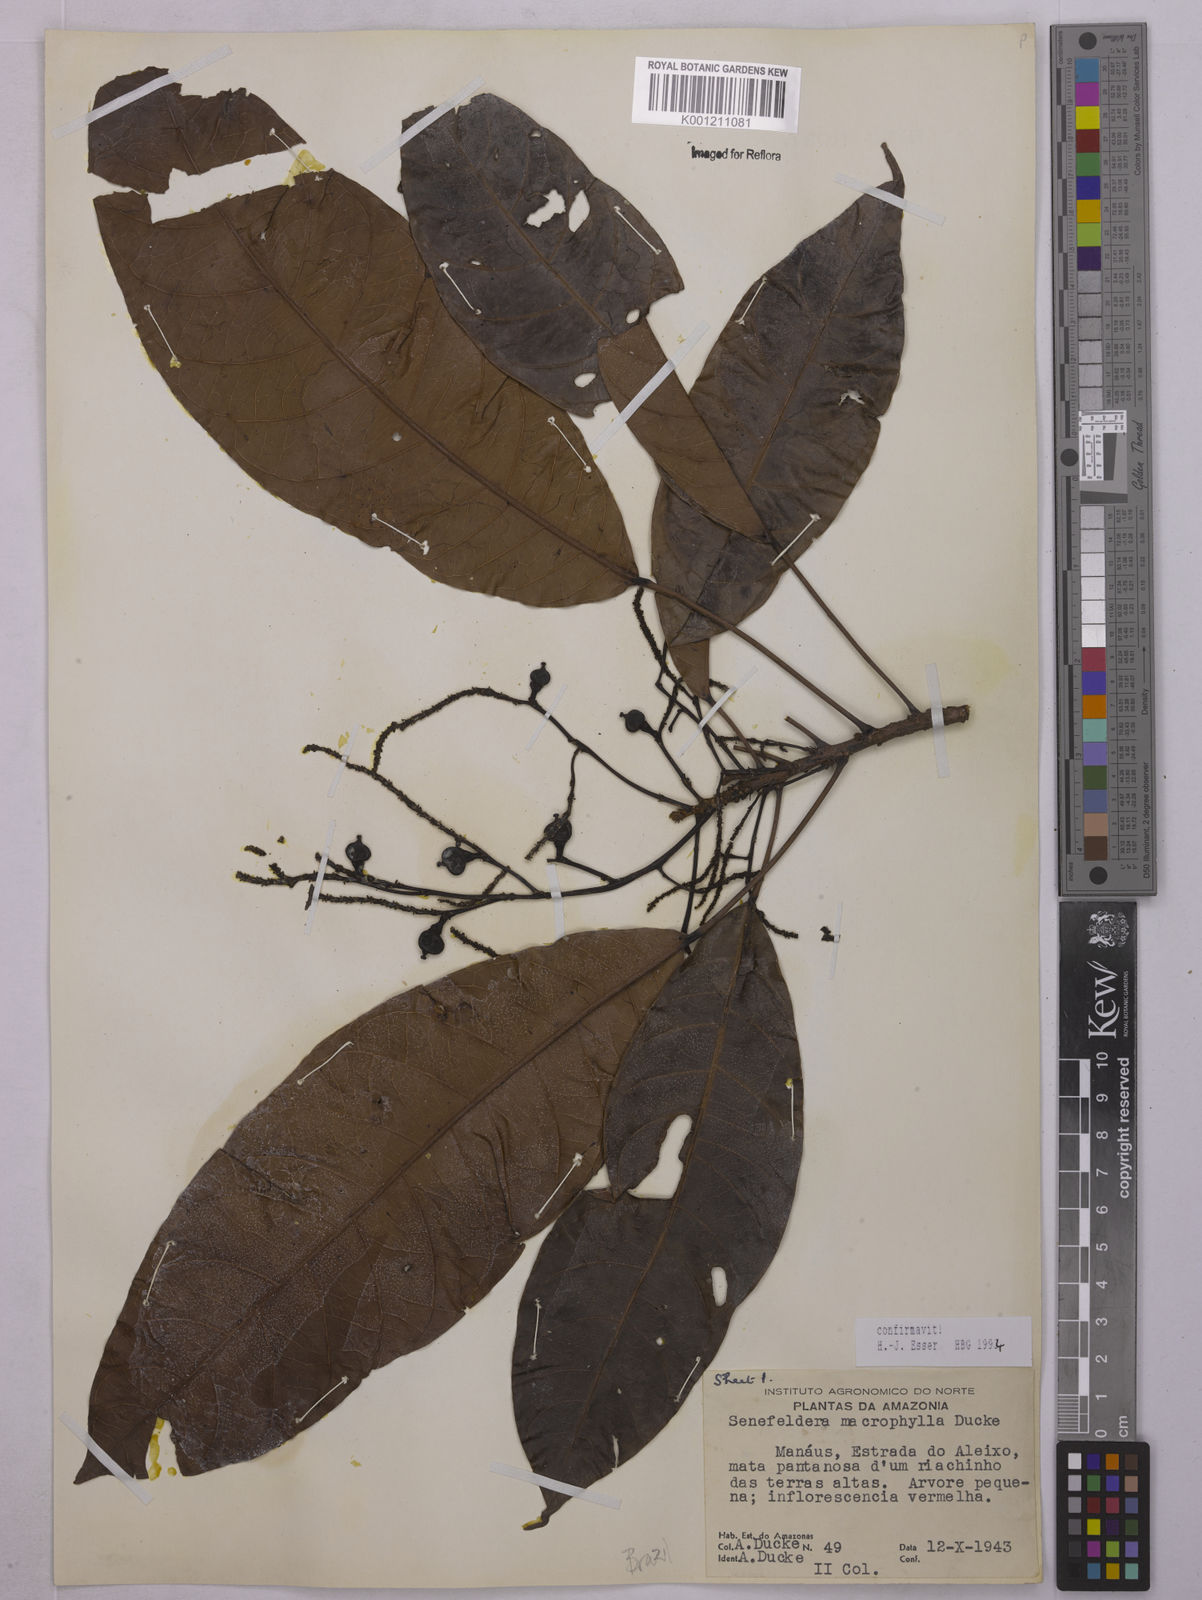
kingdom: Plantae
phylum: Tracheophyta
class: Magnoliopsida
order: Malpighiales
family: Euphorbiaceae
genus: Rhodothyrsus
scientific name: Rhodothyrsus macrophyllus
